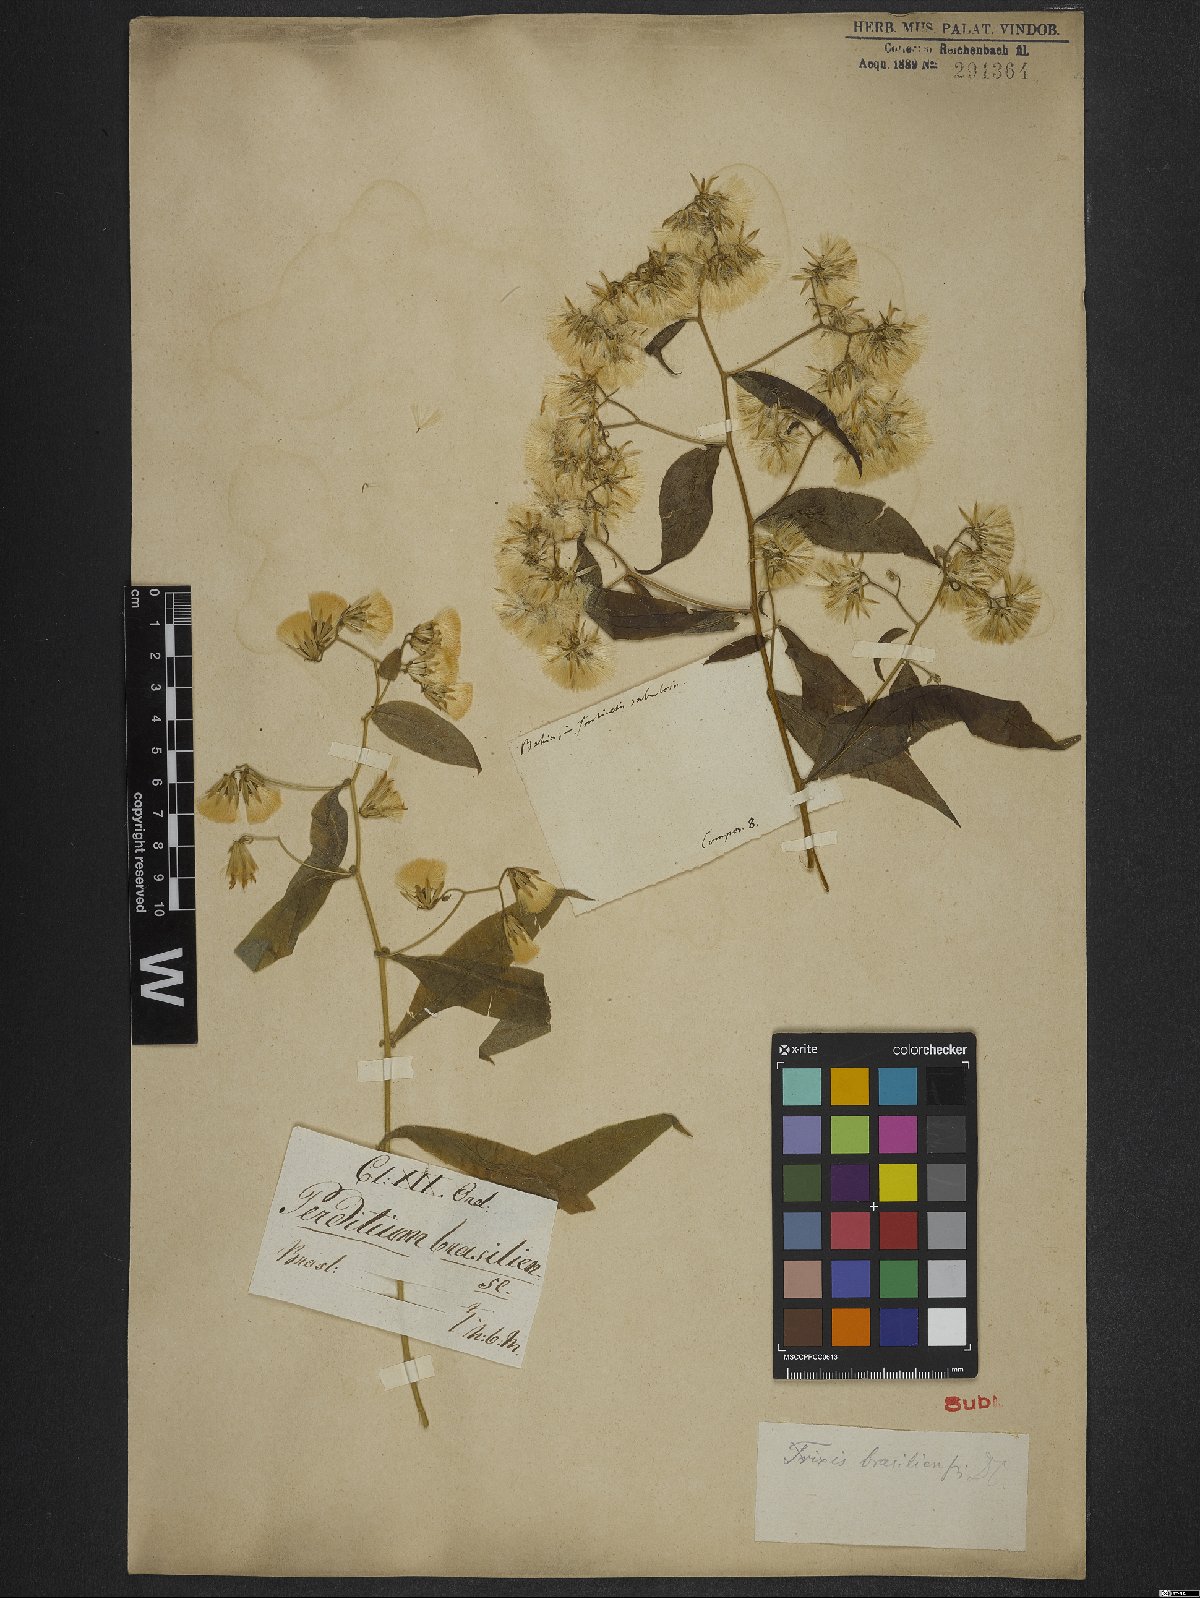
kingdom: Plantae
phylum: Tracheophyta
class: Magnoliopsida
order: Asterales
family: Asteraceae
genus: Holocheilus
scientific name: Holocheilus brasiliensis
